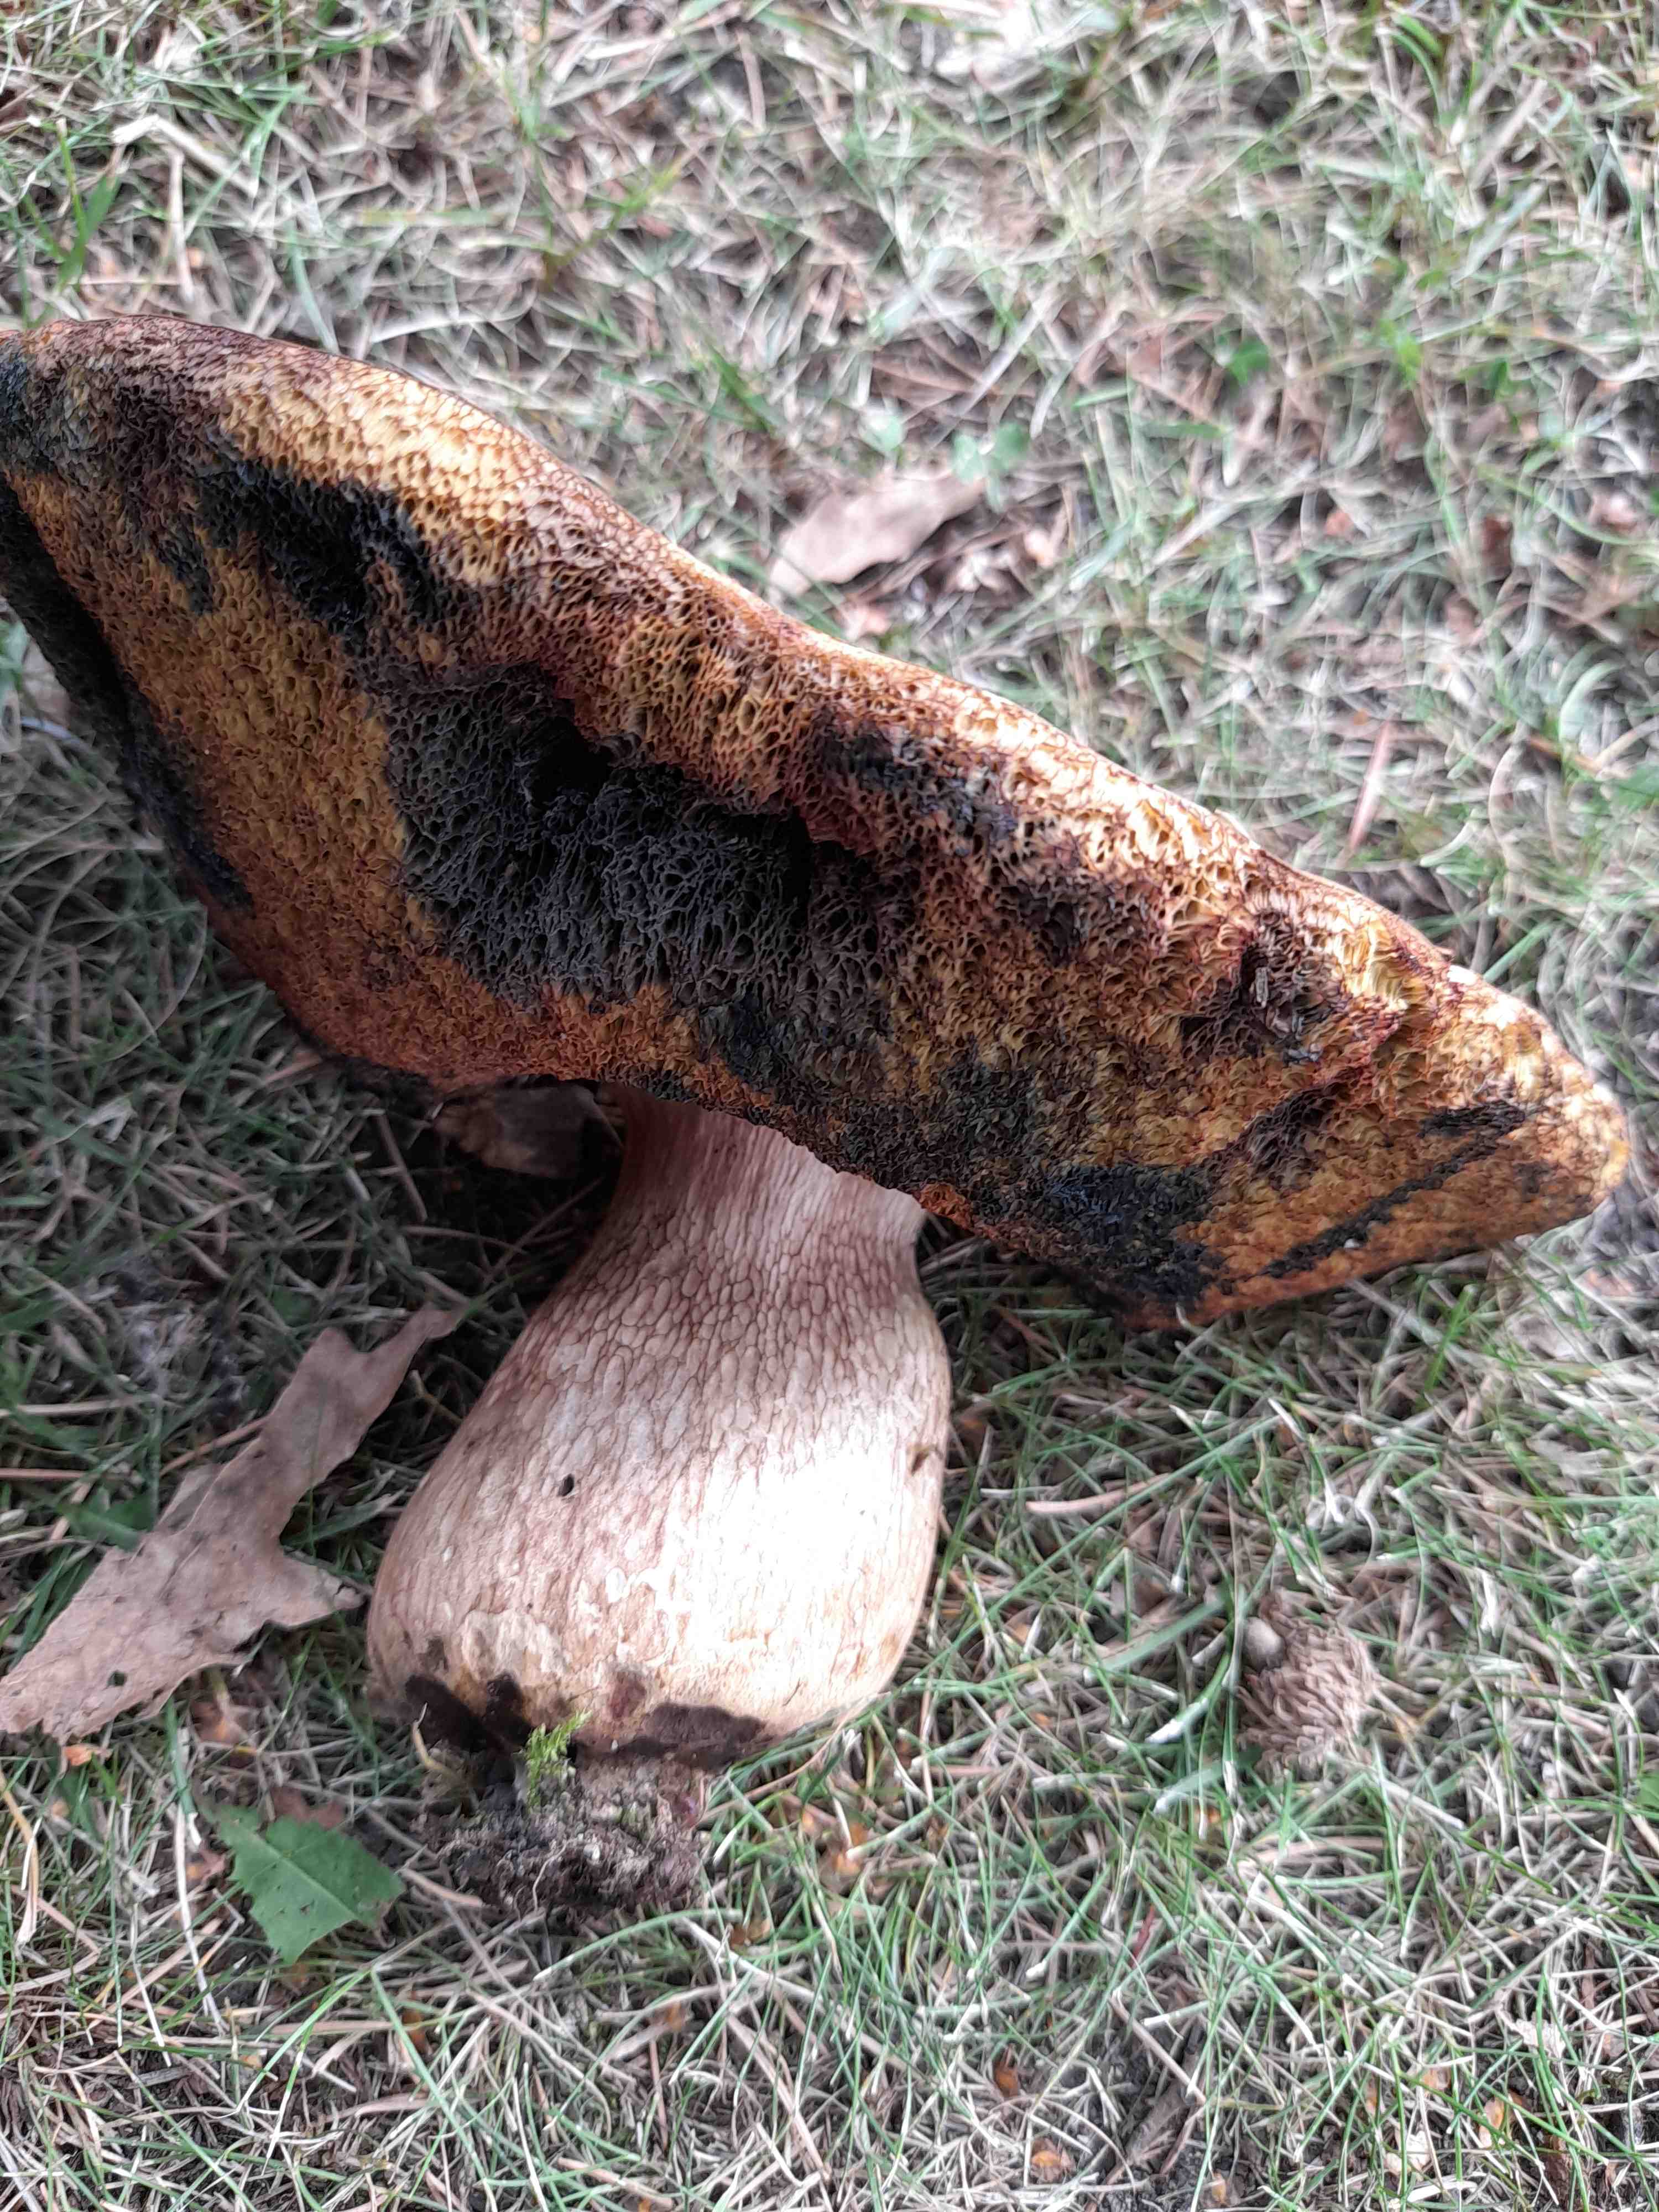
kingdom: Fungi
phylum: Basidiomycota
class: Agaricomycetes
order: Boletales
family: Boletaceae
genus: Suillellus
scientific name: Suillellus luridus
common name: netstokket indigorørhat
